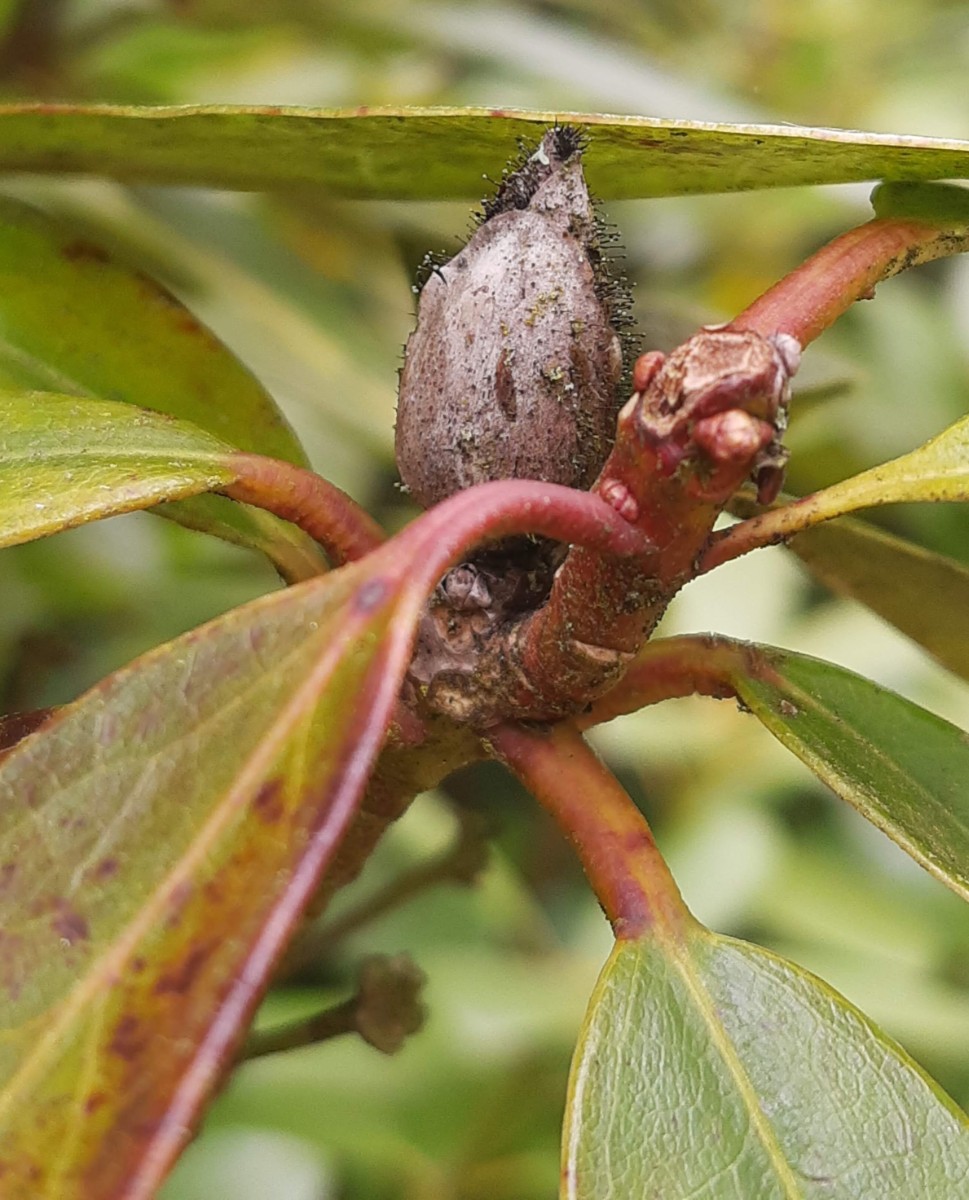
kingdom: Fungi
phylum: Ascomycota
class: Dothideomycetes
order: Pleosporales
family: Melanommataceae
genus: Seifertia
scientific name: Seifertia azaleae
